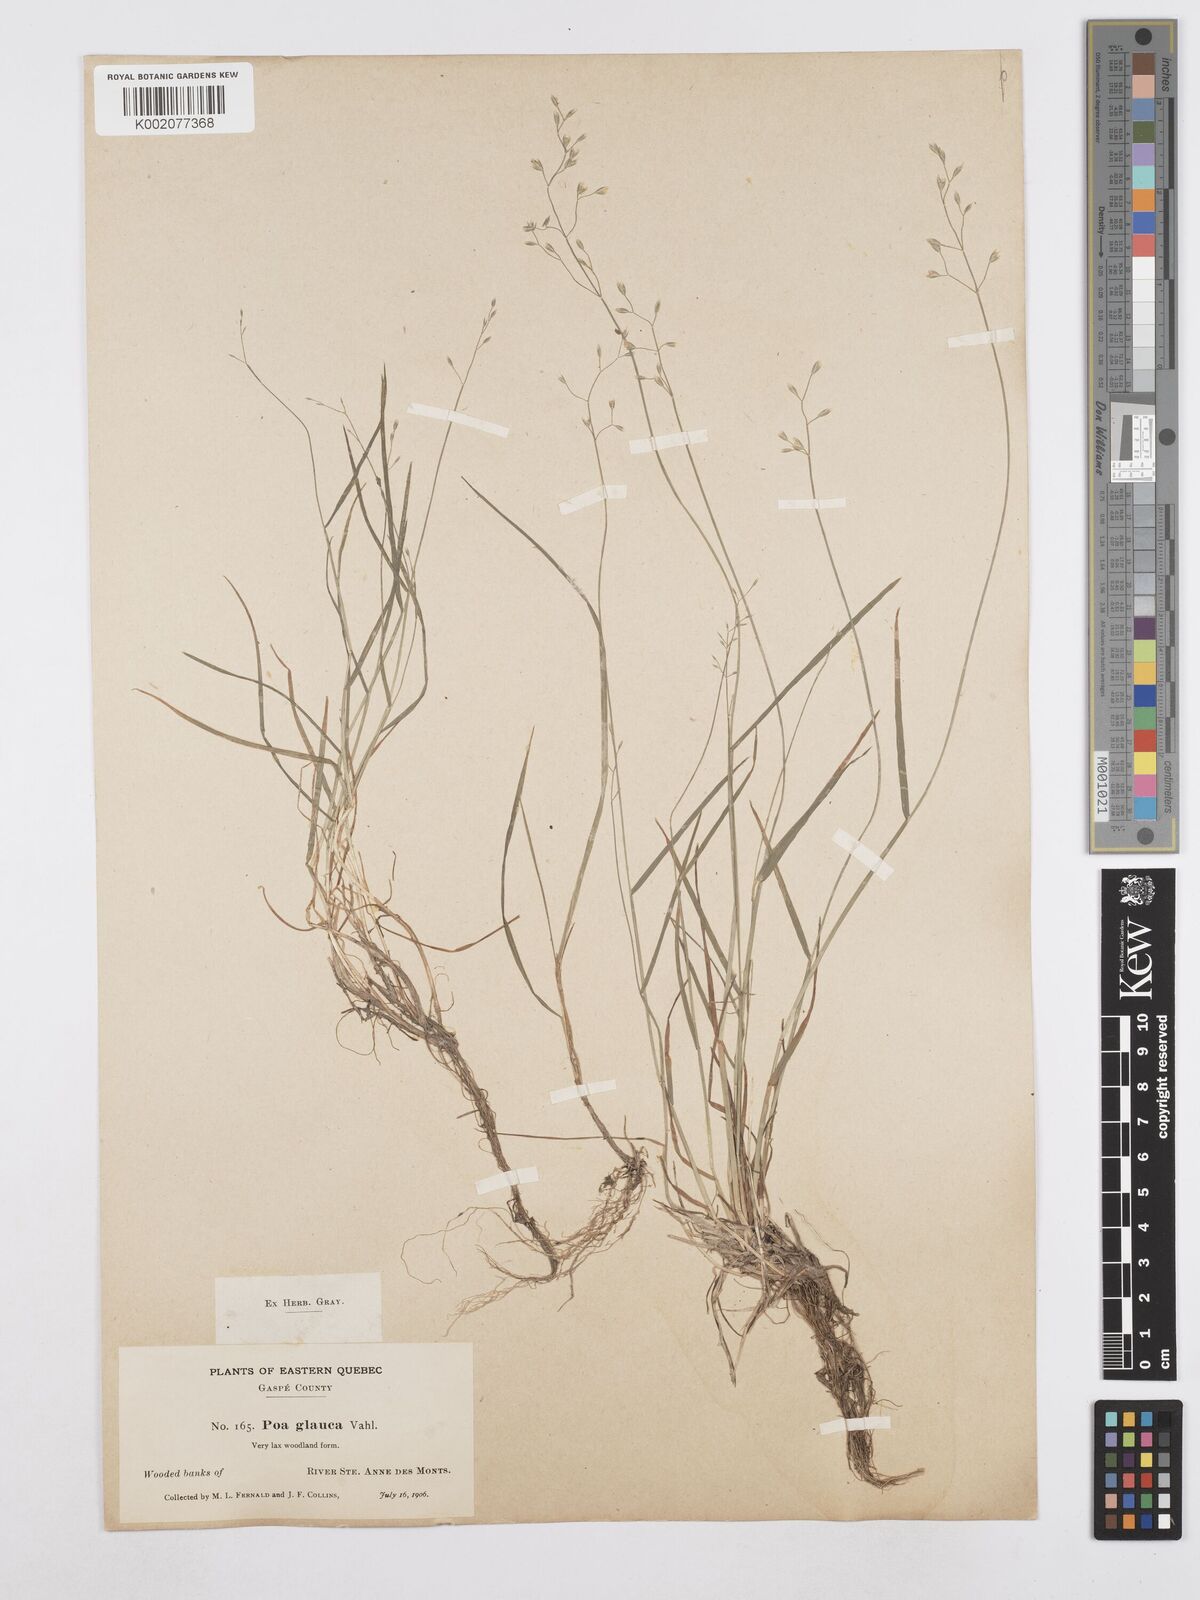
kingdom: Plantae
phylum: Tracheophyta
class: Liliopsida
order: Poales
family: Poaceae
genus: Poa
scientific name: Poa glauca
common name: Glaucous bluegrass
